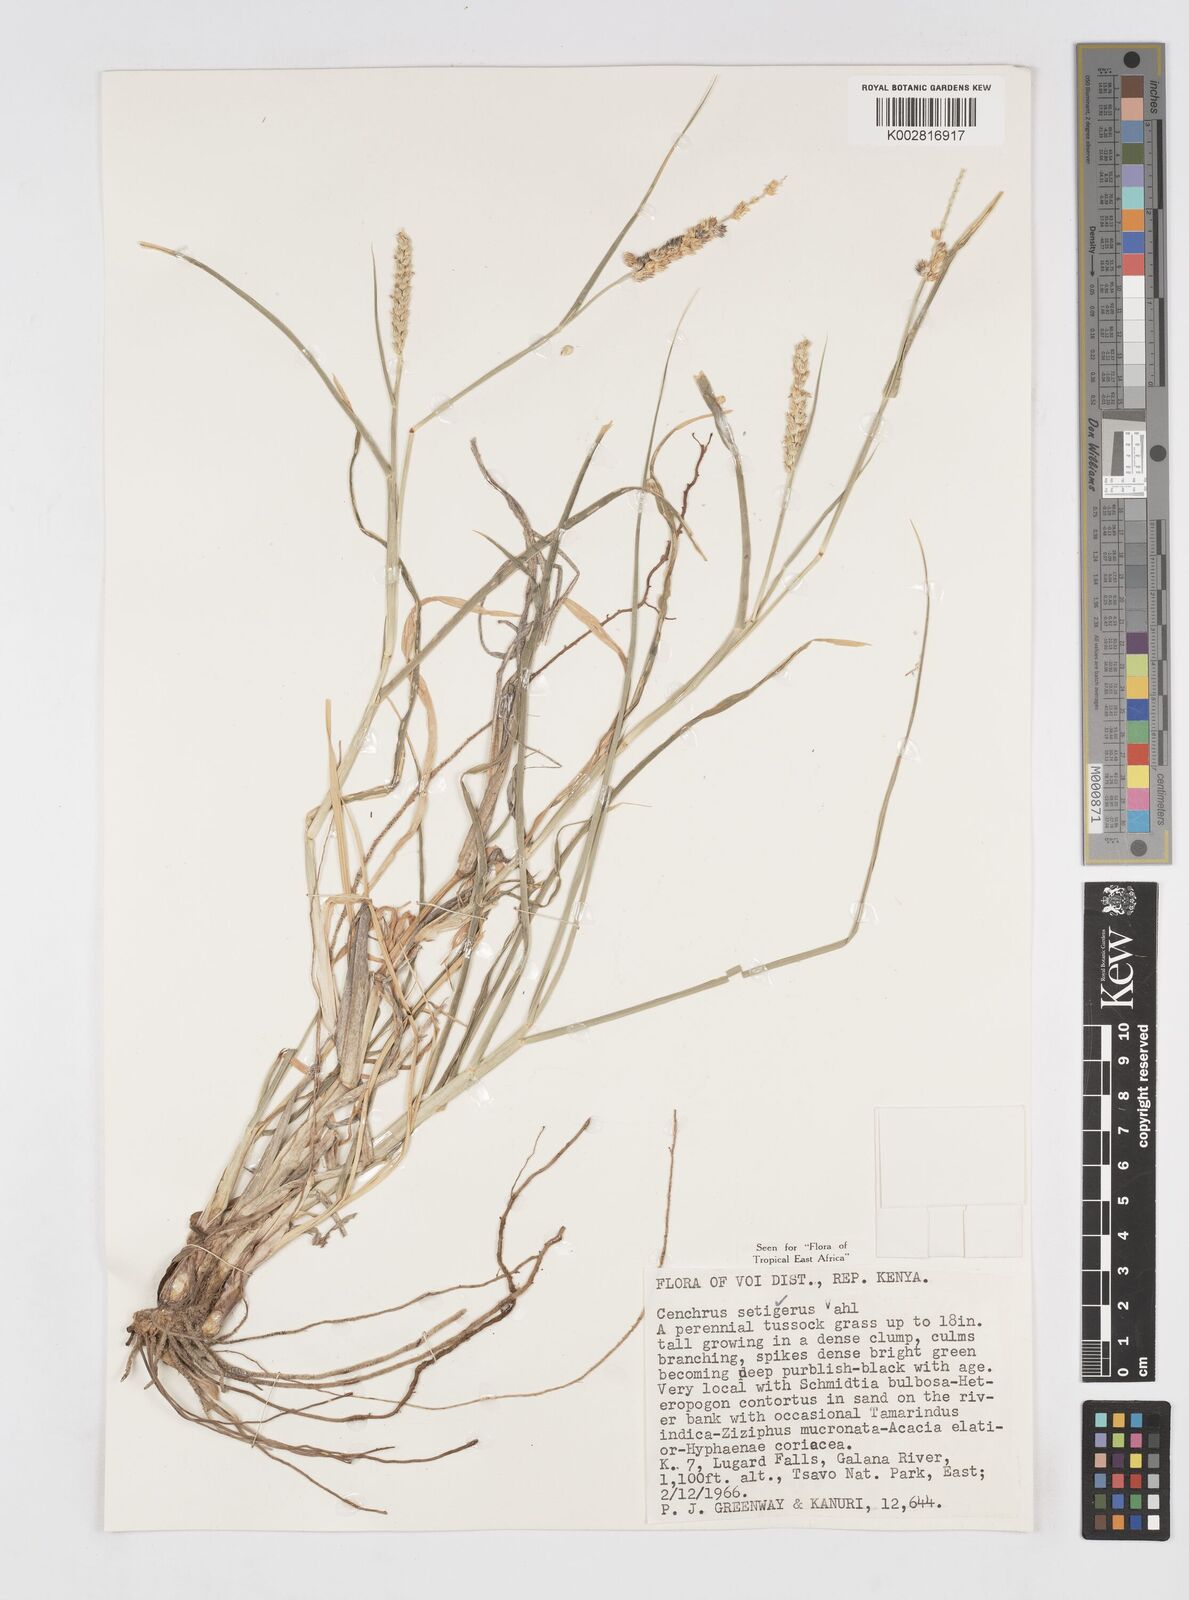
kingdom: Plantae
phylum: Tracheophyta
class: Liliopsida
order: Poales
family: Poaceae
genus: Cenchrus
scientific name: Cenchrus setigerus
